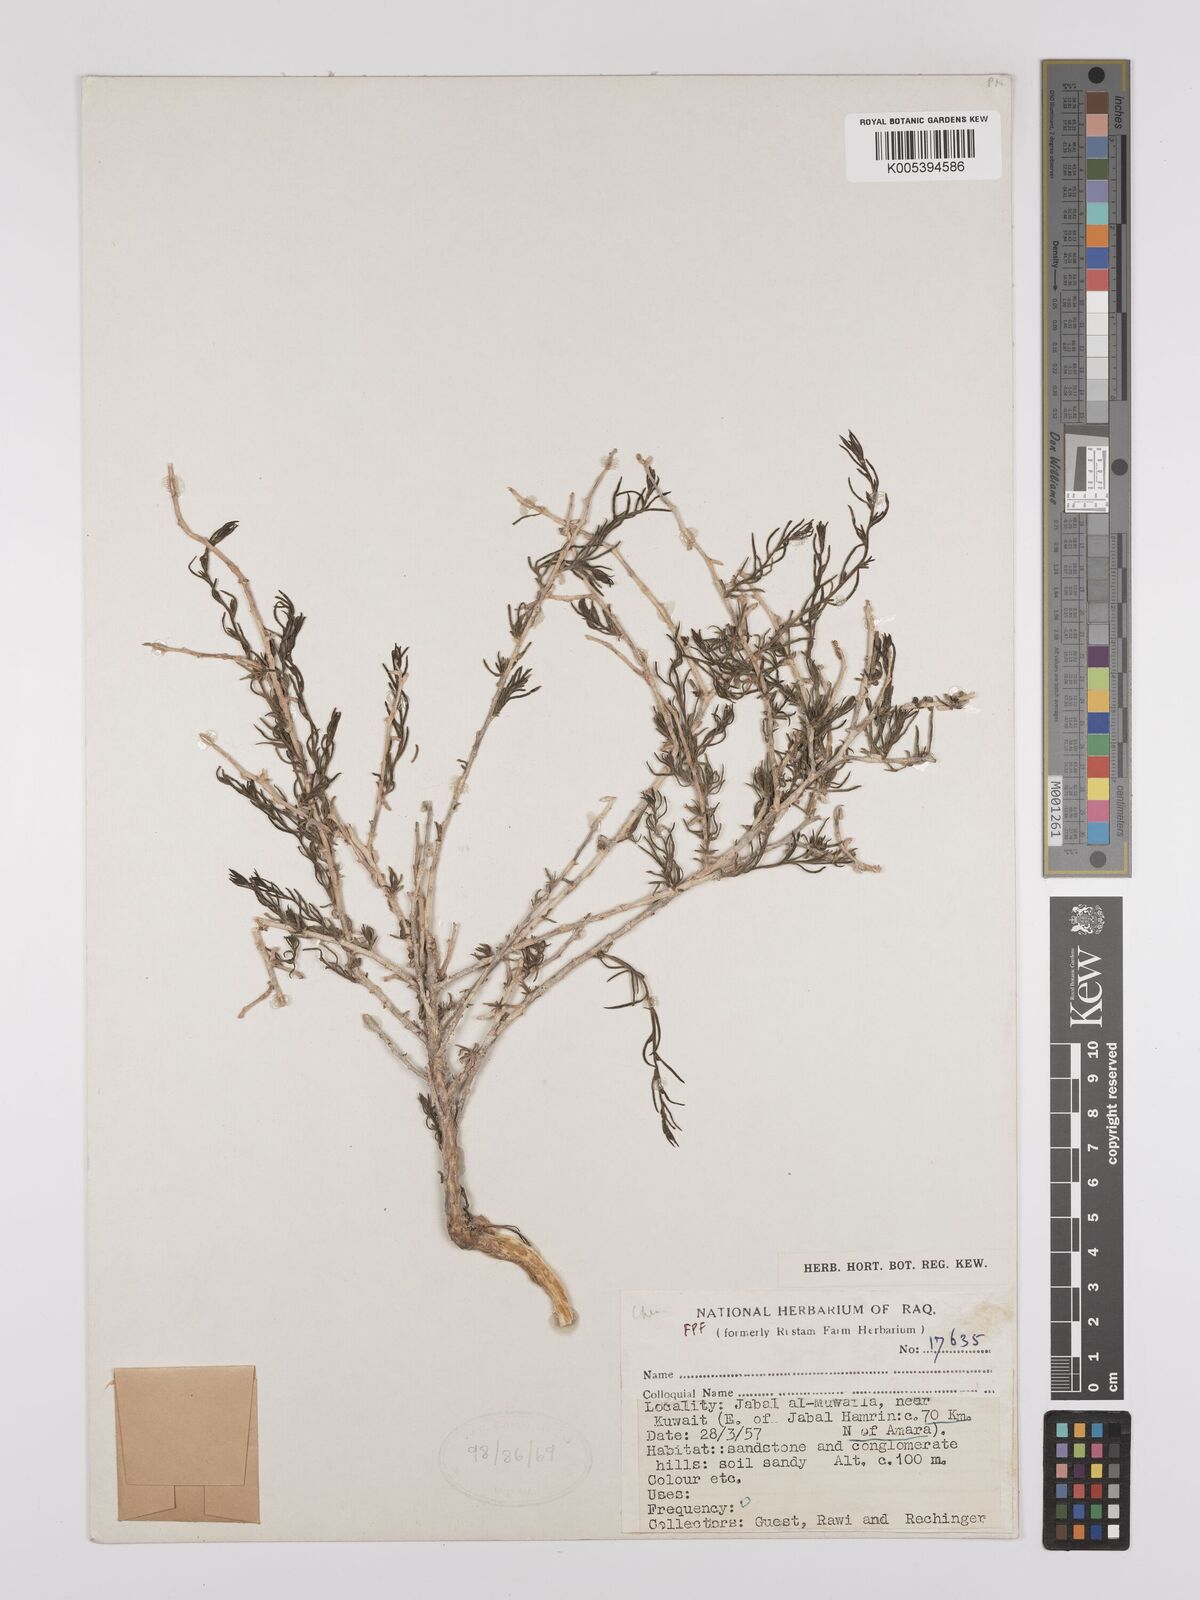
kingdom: Plantae
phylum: Tracheophyta
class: Magnoliopsida
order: Caryophyllales
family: Amaranthaceae
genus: Suaeda
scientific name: Suaeda
